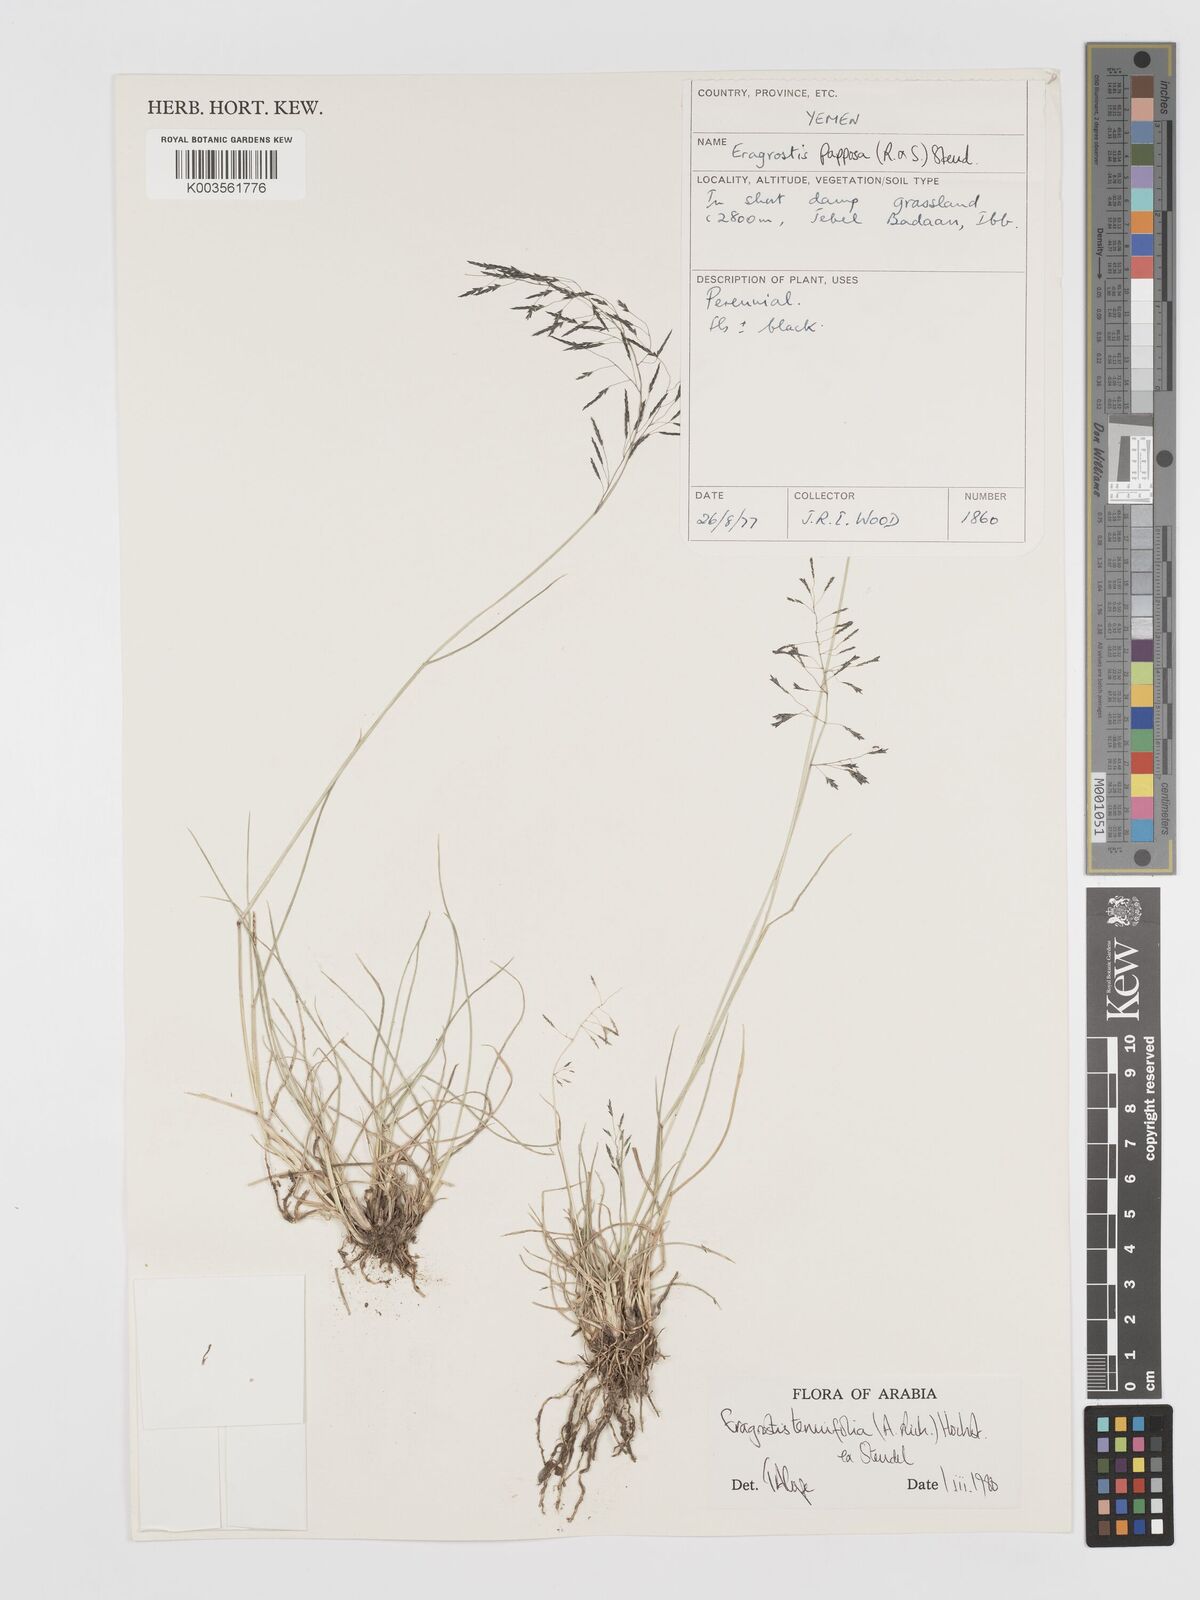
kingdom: Plantae
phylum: Tracheophyta
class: Liliopsida
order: Poales
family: Poaceae
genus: Eragrostis
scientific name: Eragrostis tenuifolia
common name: Elastic grass
